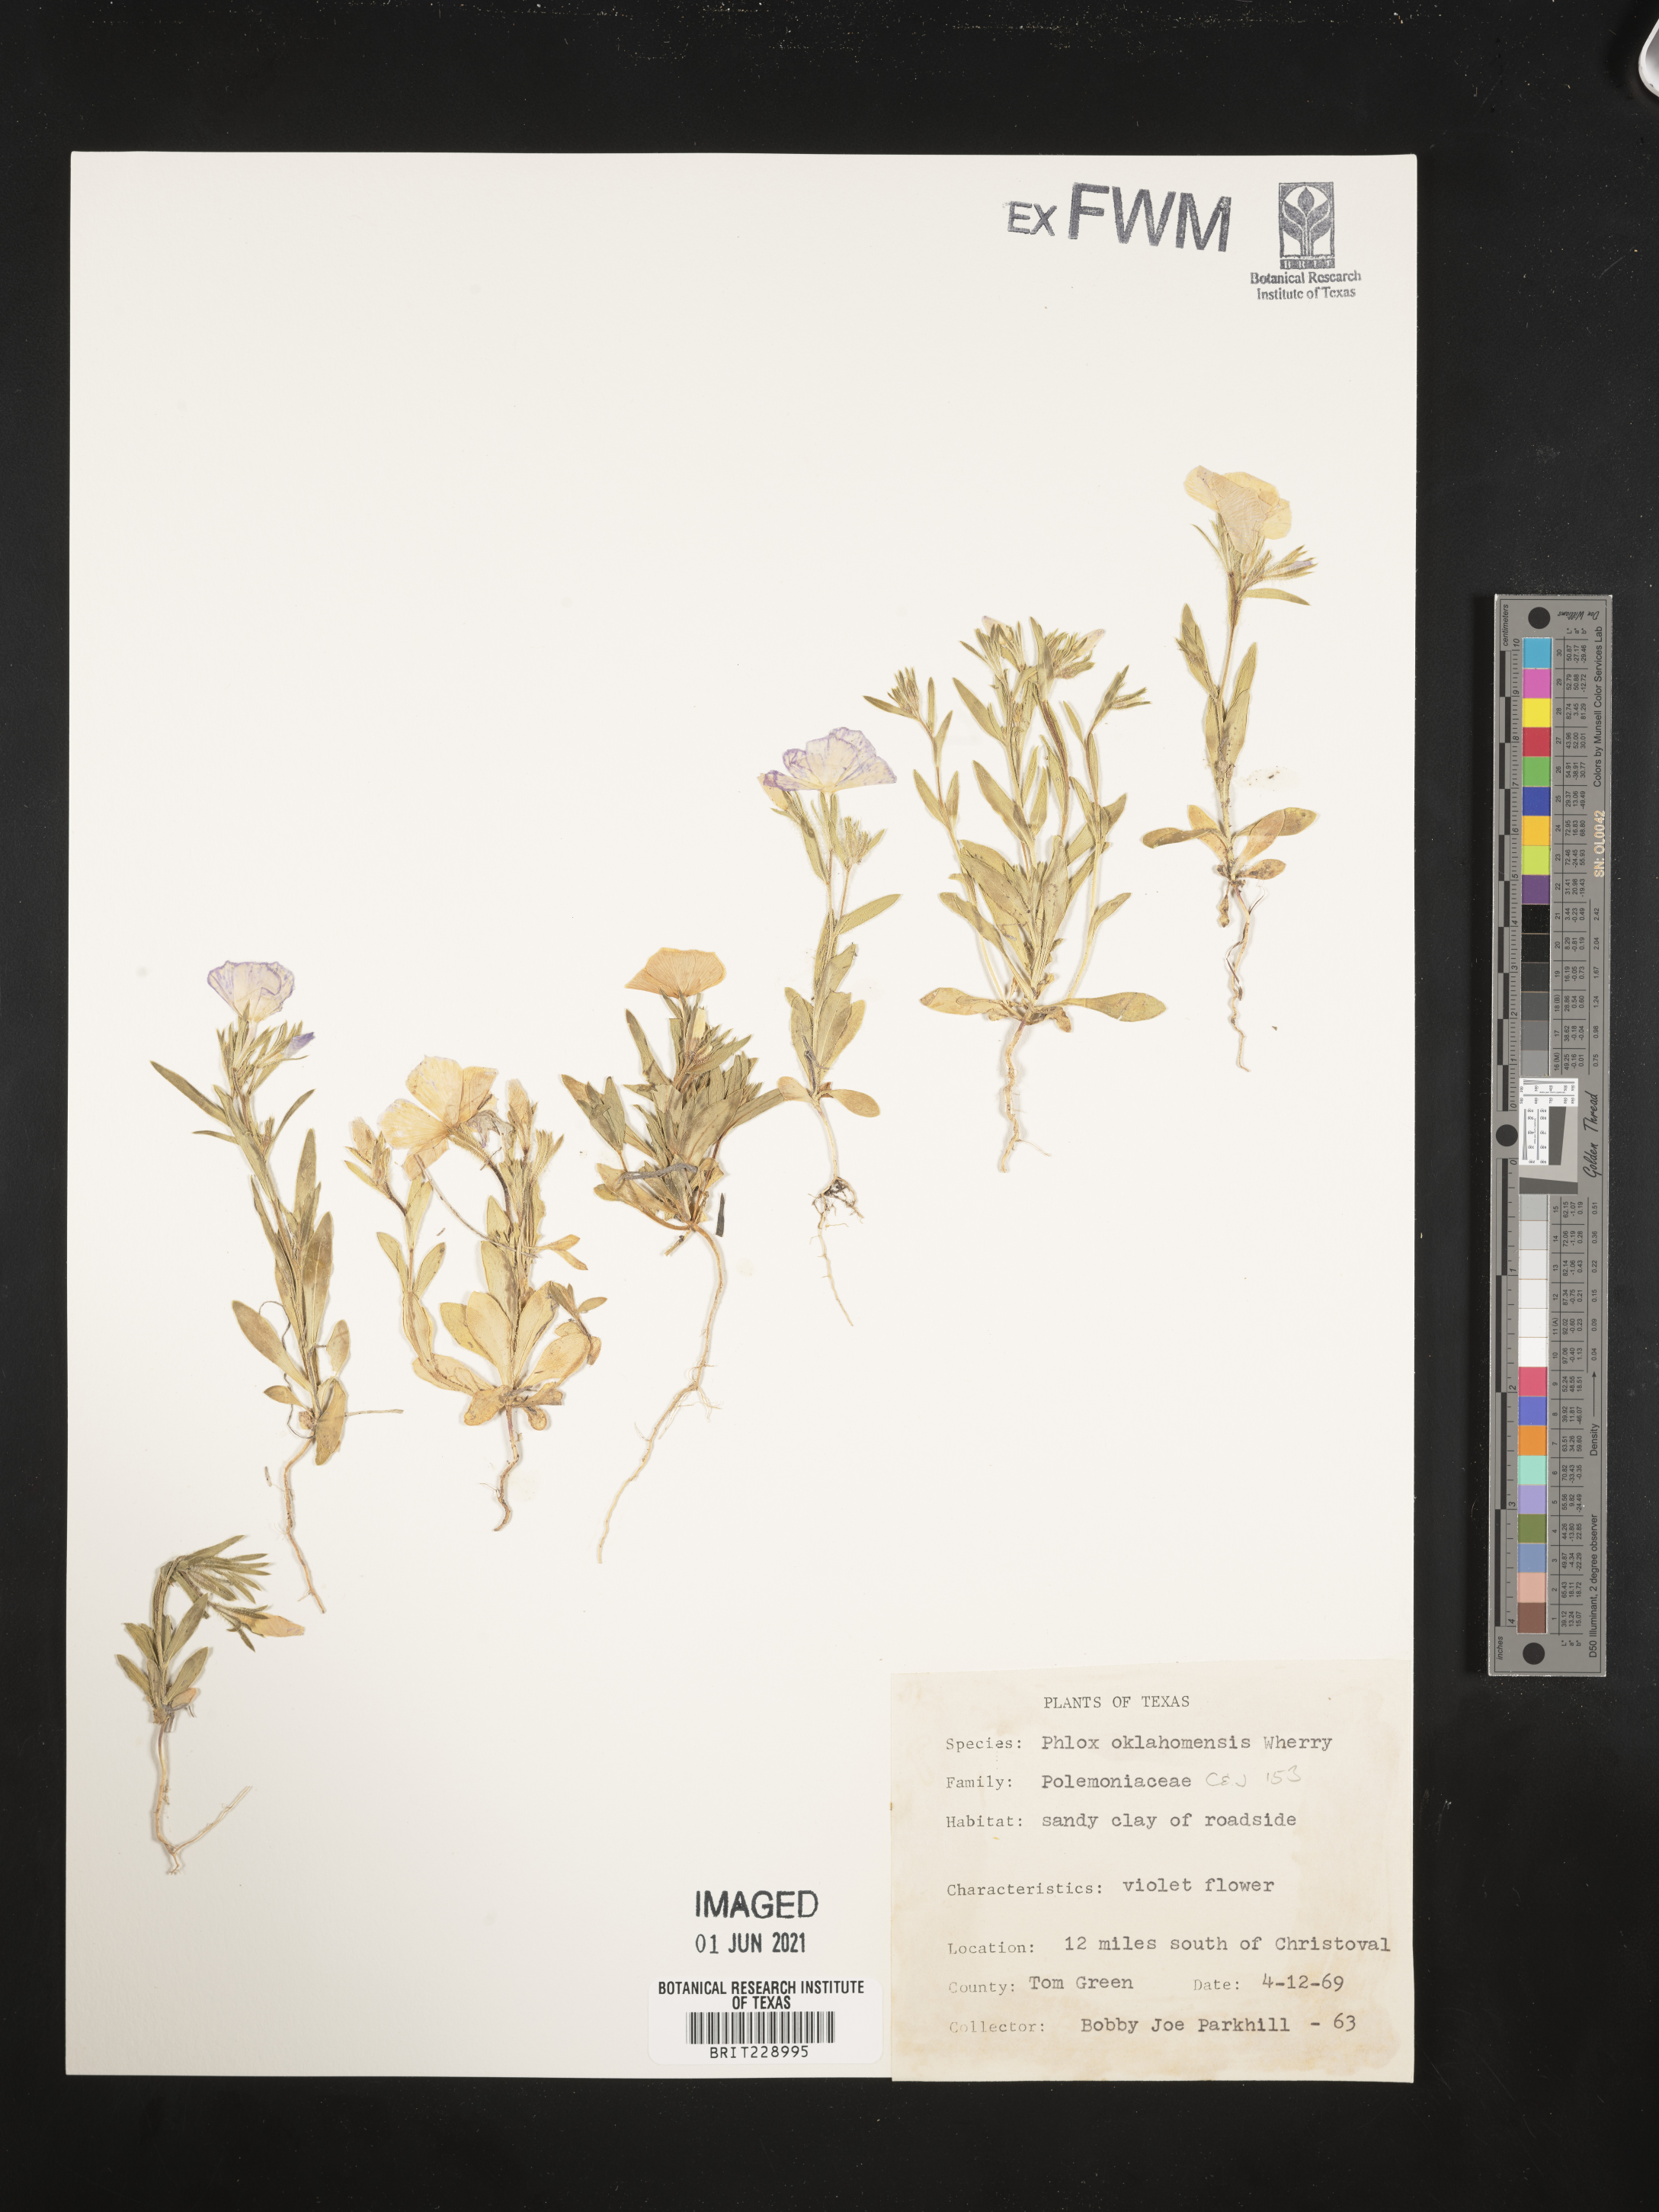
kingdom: Plantae
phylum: Tracheophyta
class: Magnoliopsida
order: Ericales
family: Polemoniaceae
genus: Phlox
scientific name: Phlox oklahomensis
